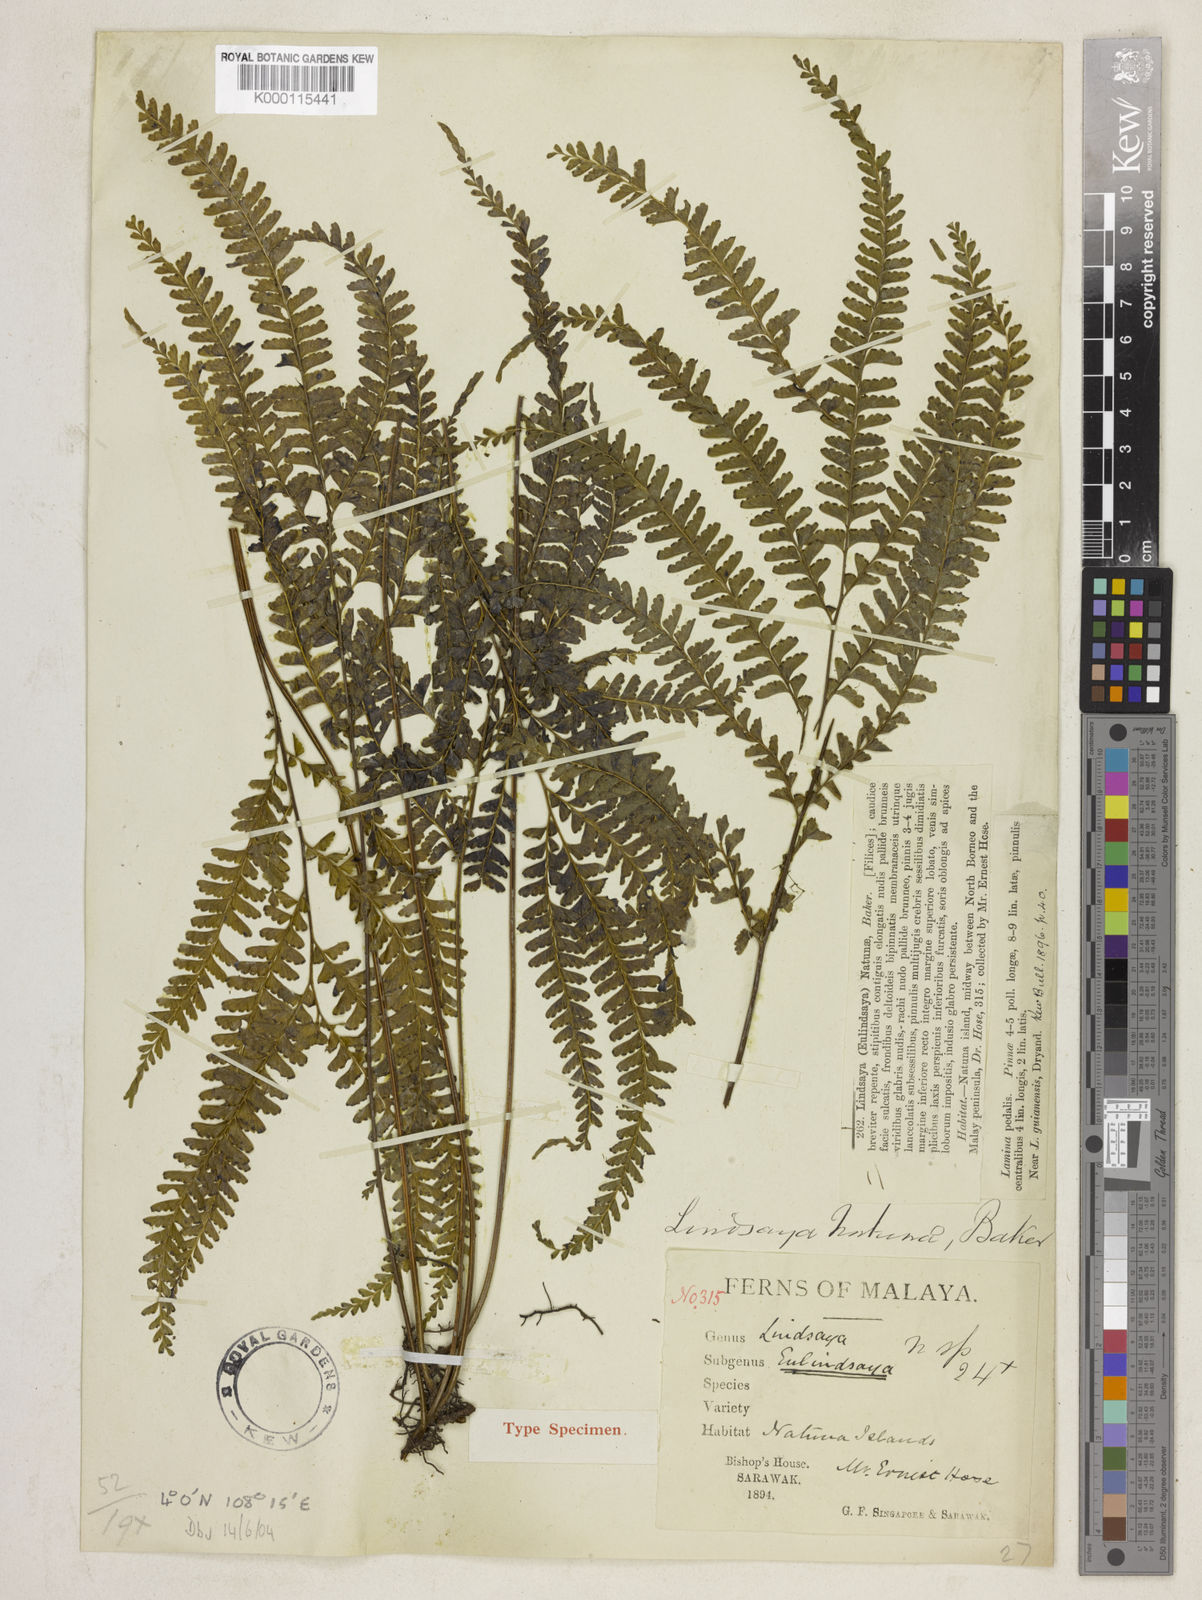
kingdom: Plantae
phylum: Tracheophyta
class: Polypodiopsida
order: Polypodiales
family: Lindsaeaceae
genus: Lindsaea
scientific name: Lindsaea natunae
